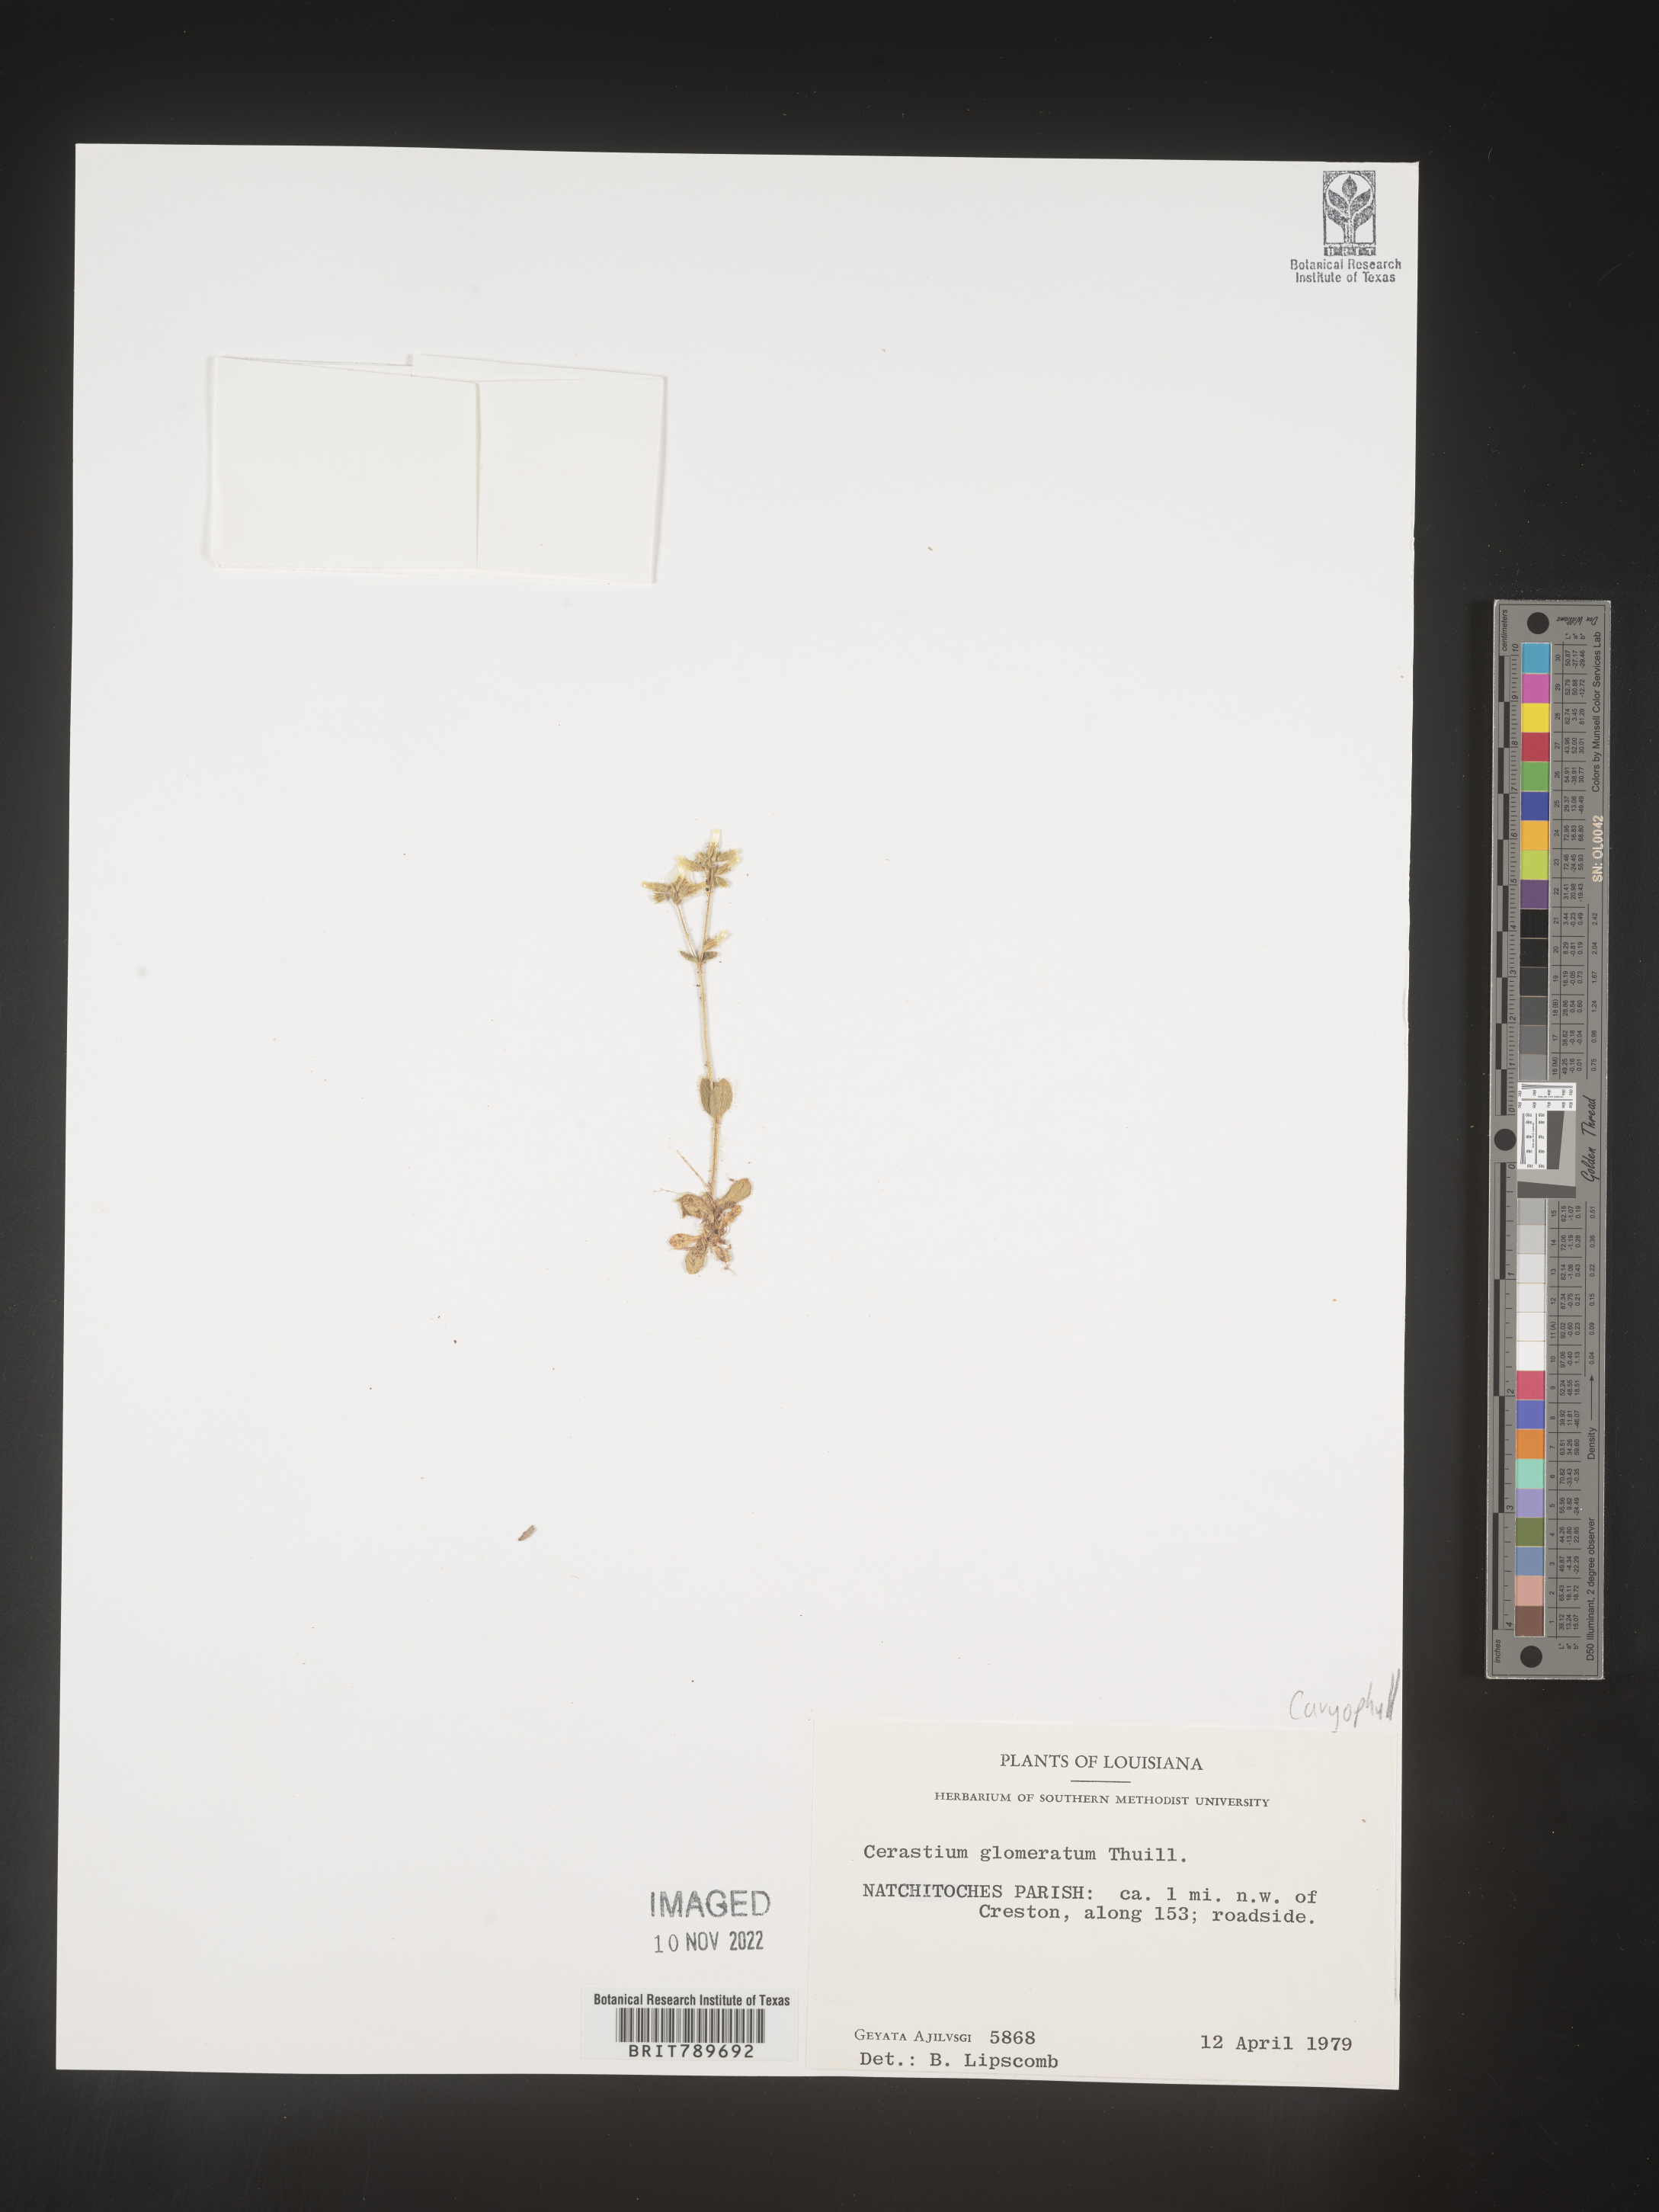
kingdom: Plantae
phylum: Tracheophyta
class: Magnoliopsida
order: Caryophyllales
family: Caryophyllaceae
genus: Cerastium
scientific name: Cerastium glomeratum
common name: Sticky chickweed
